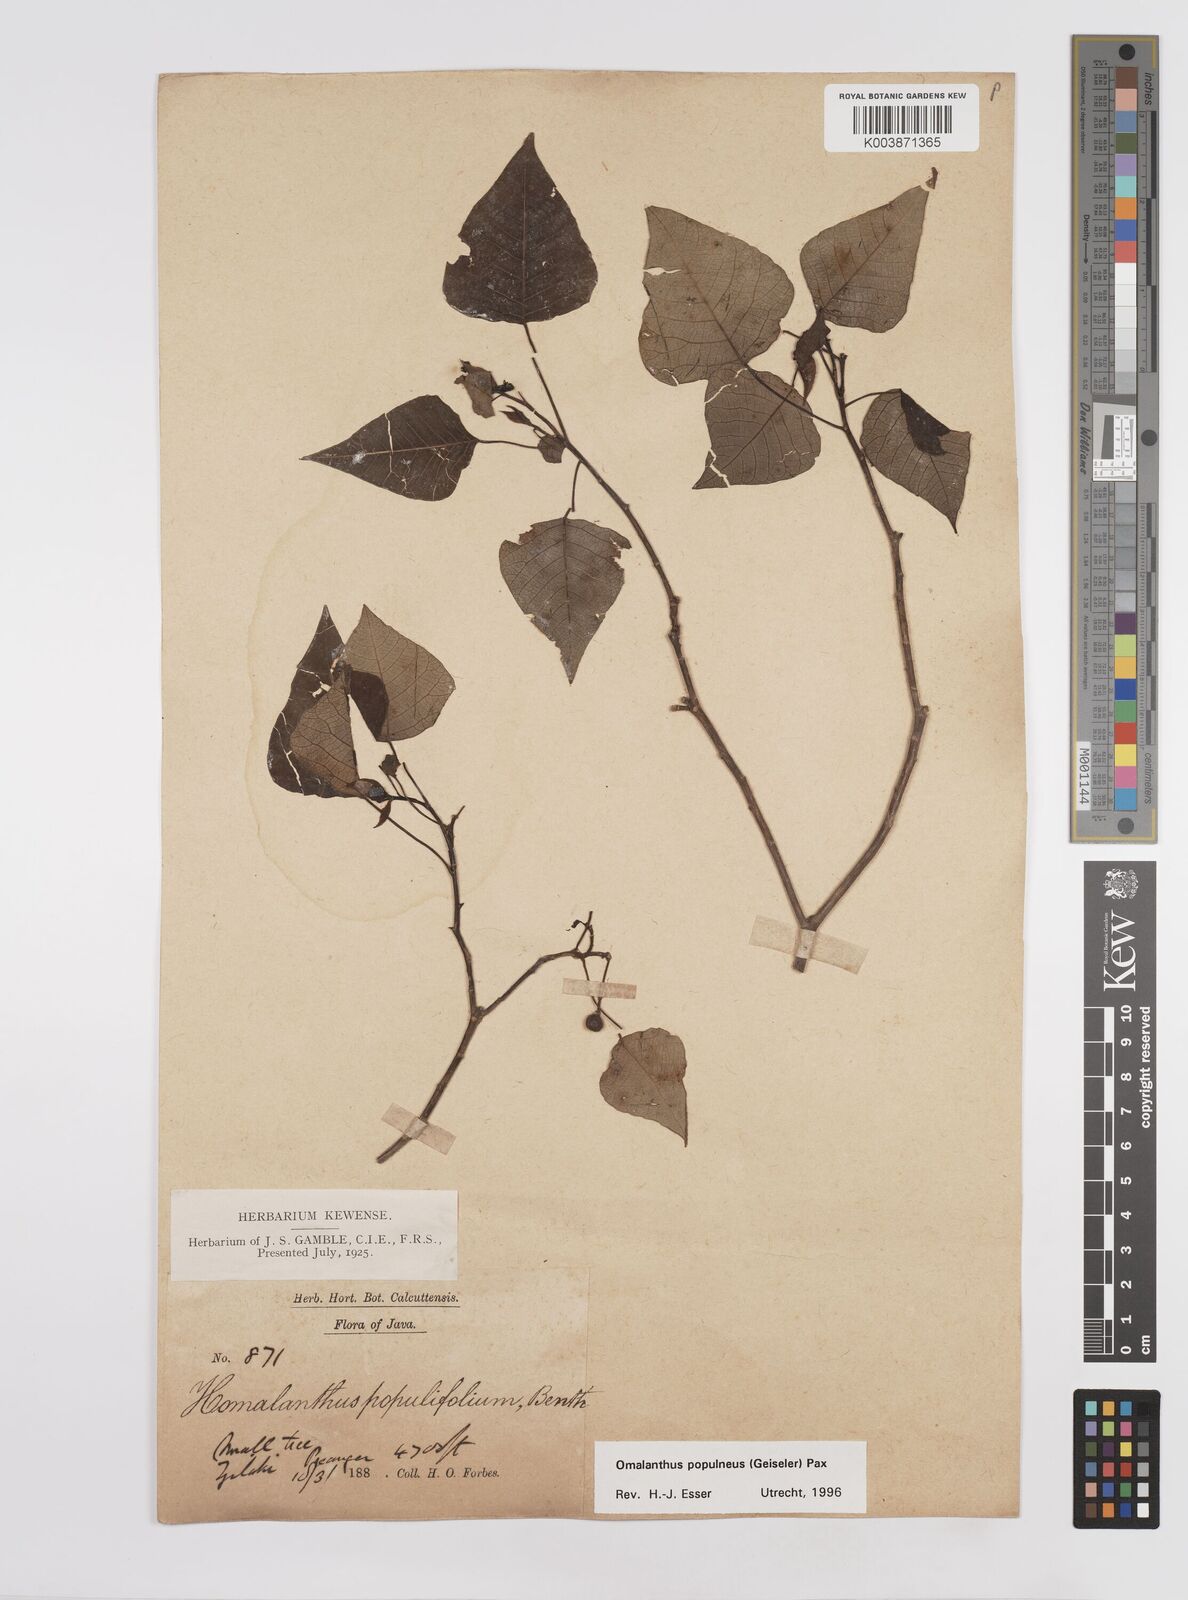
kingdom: Plantae
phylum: Tracheophyta
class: Magnoliopsida
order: Malpighiales
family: Euphorbiaceae
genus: Homalanthus
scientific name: Homalanthus populneus
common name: Spurge
